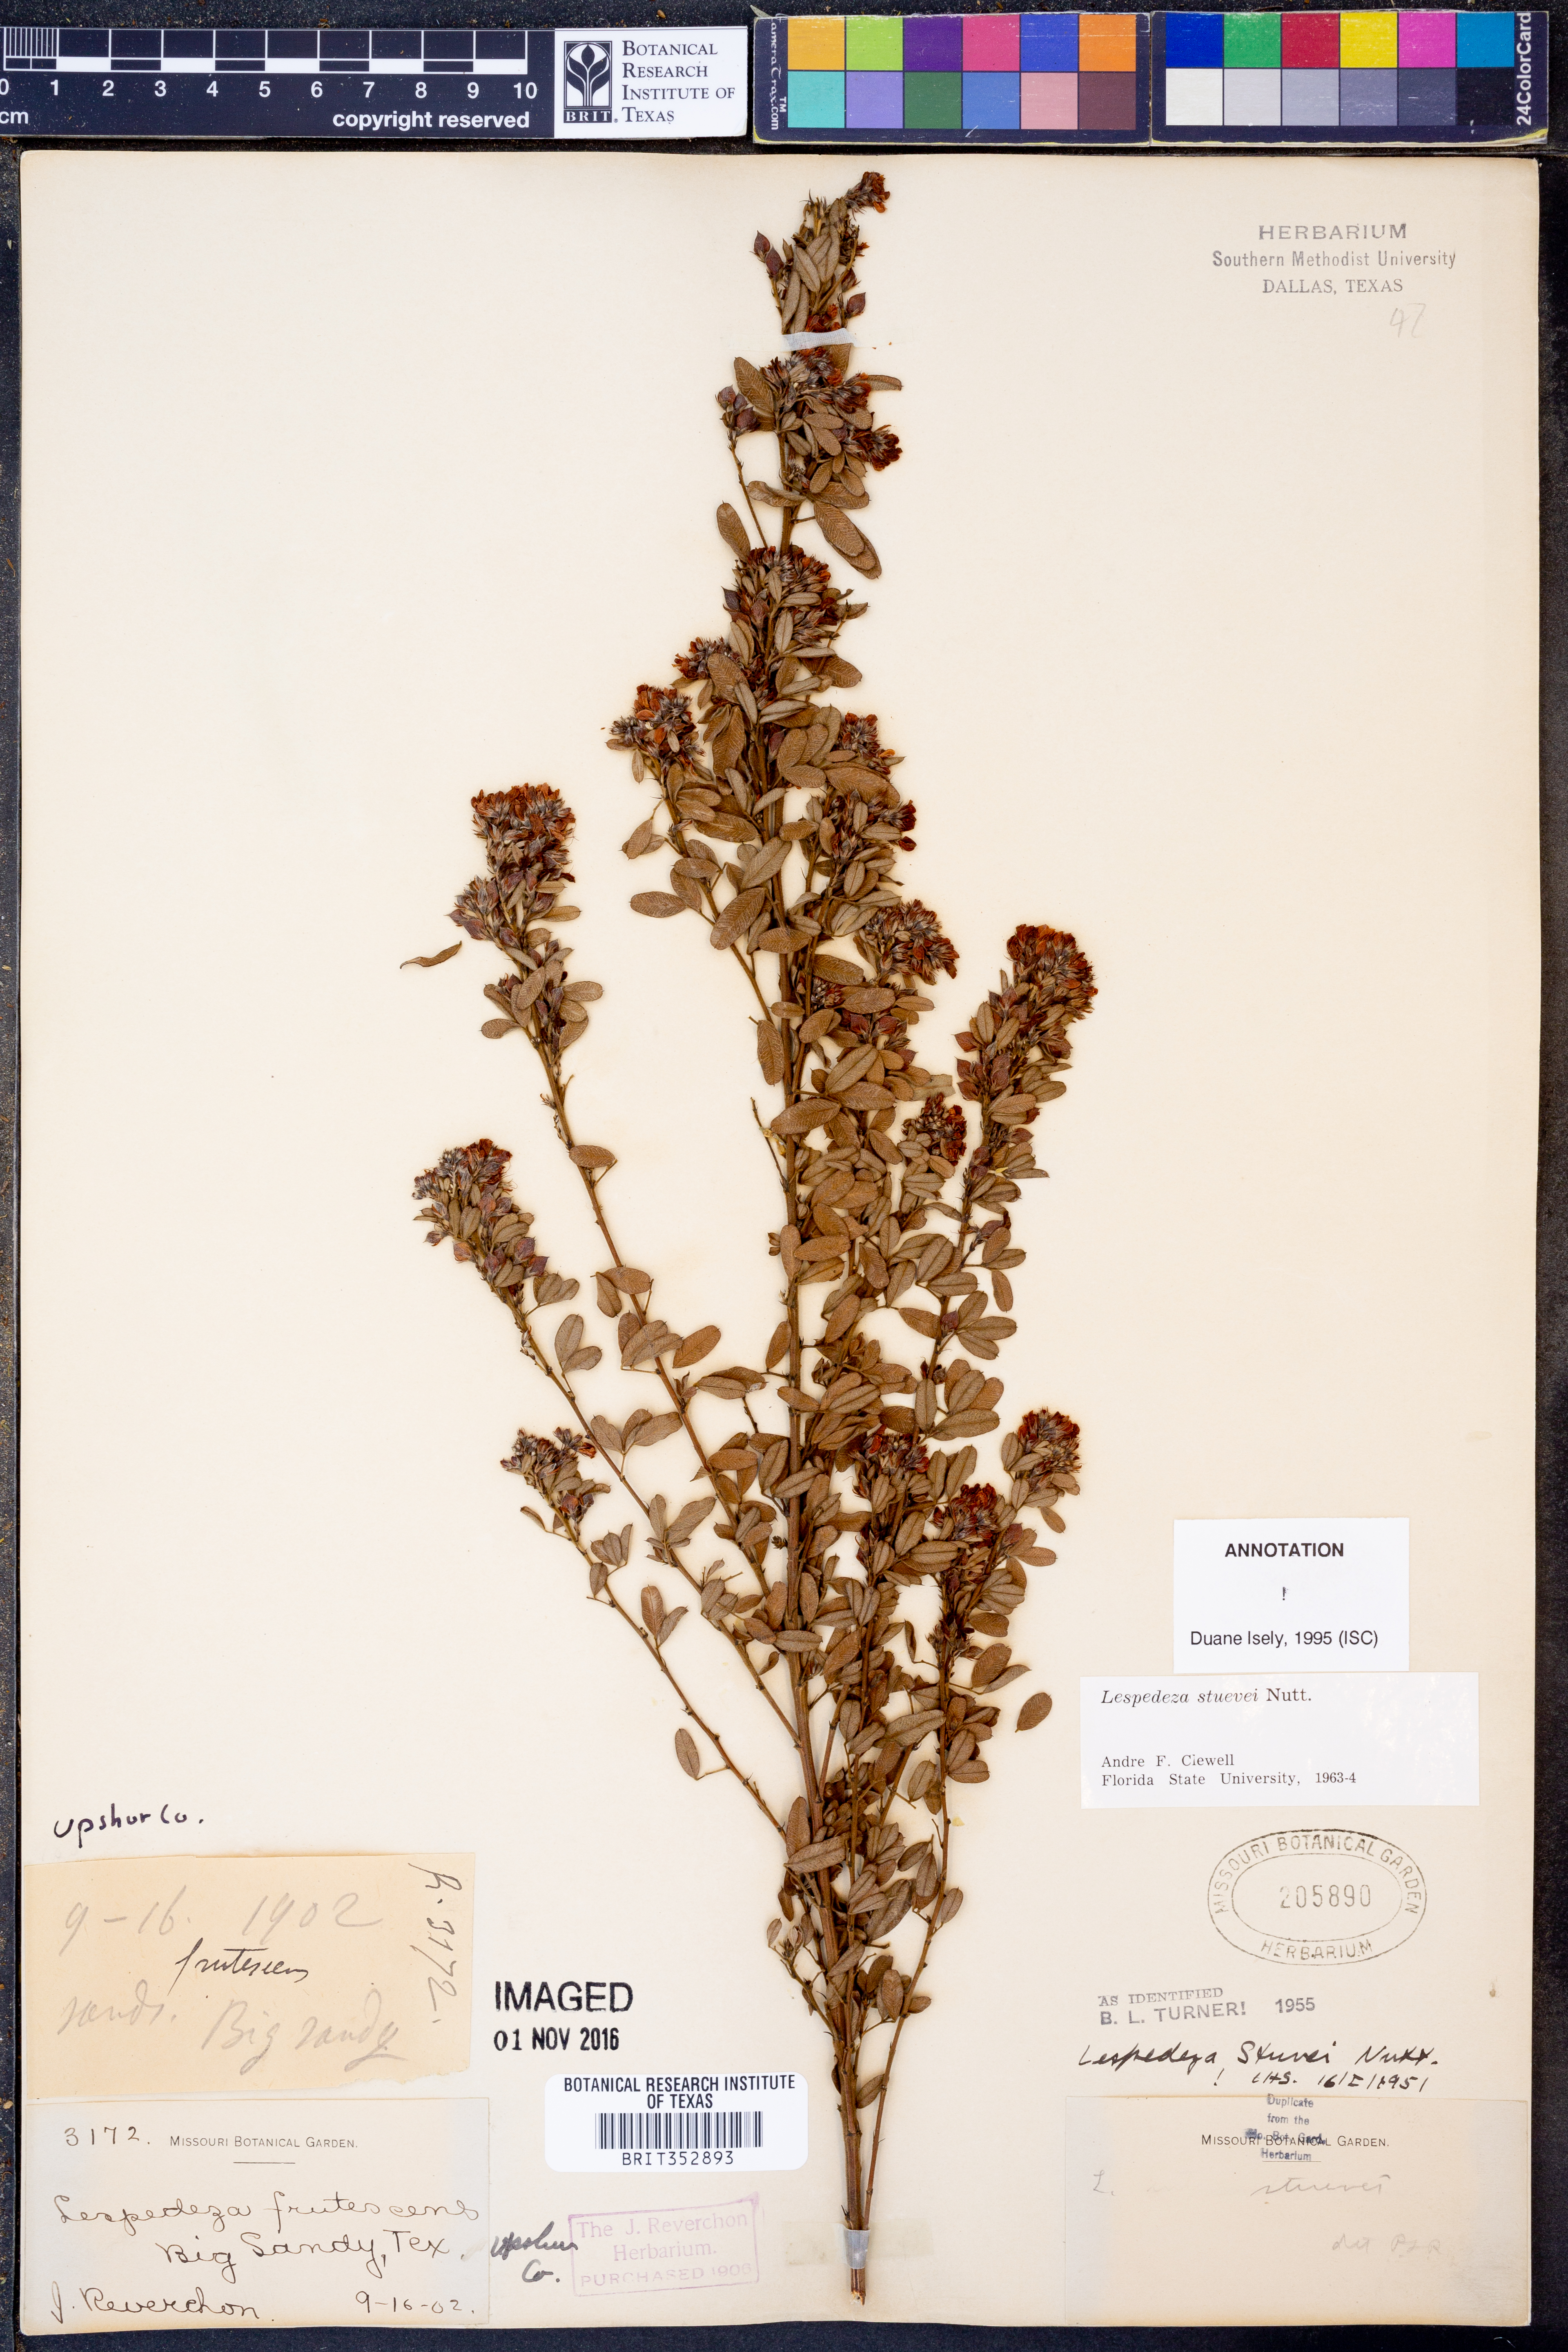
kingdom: Plantae
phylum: Tracheophyta
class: Magnoliopsida
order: Fabales
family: Fabaceae
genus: Lespedeza
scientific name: Lespedeza stuevei
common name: Tall bush-clover
